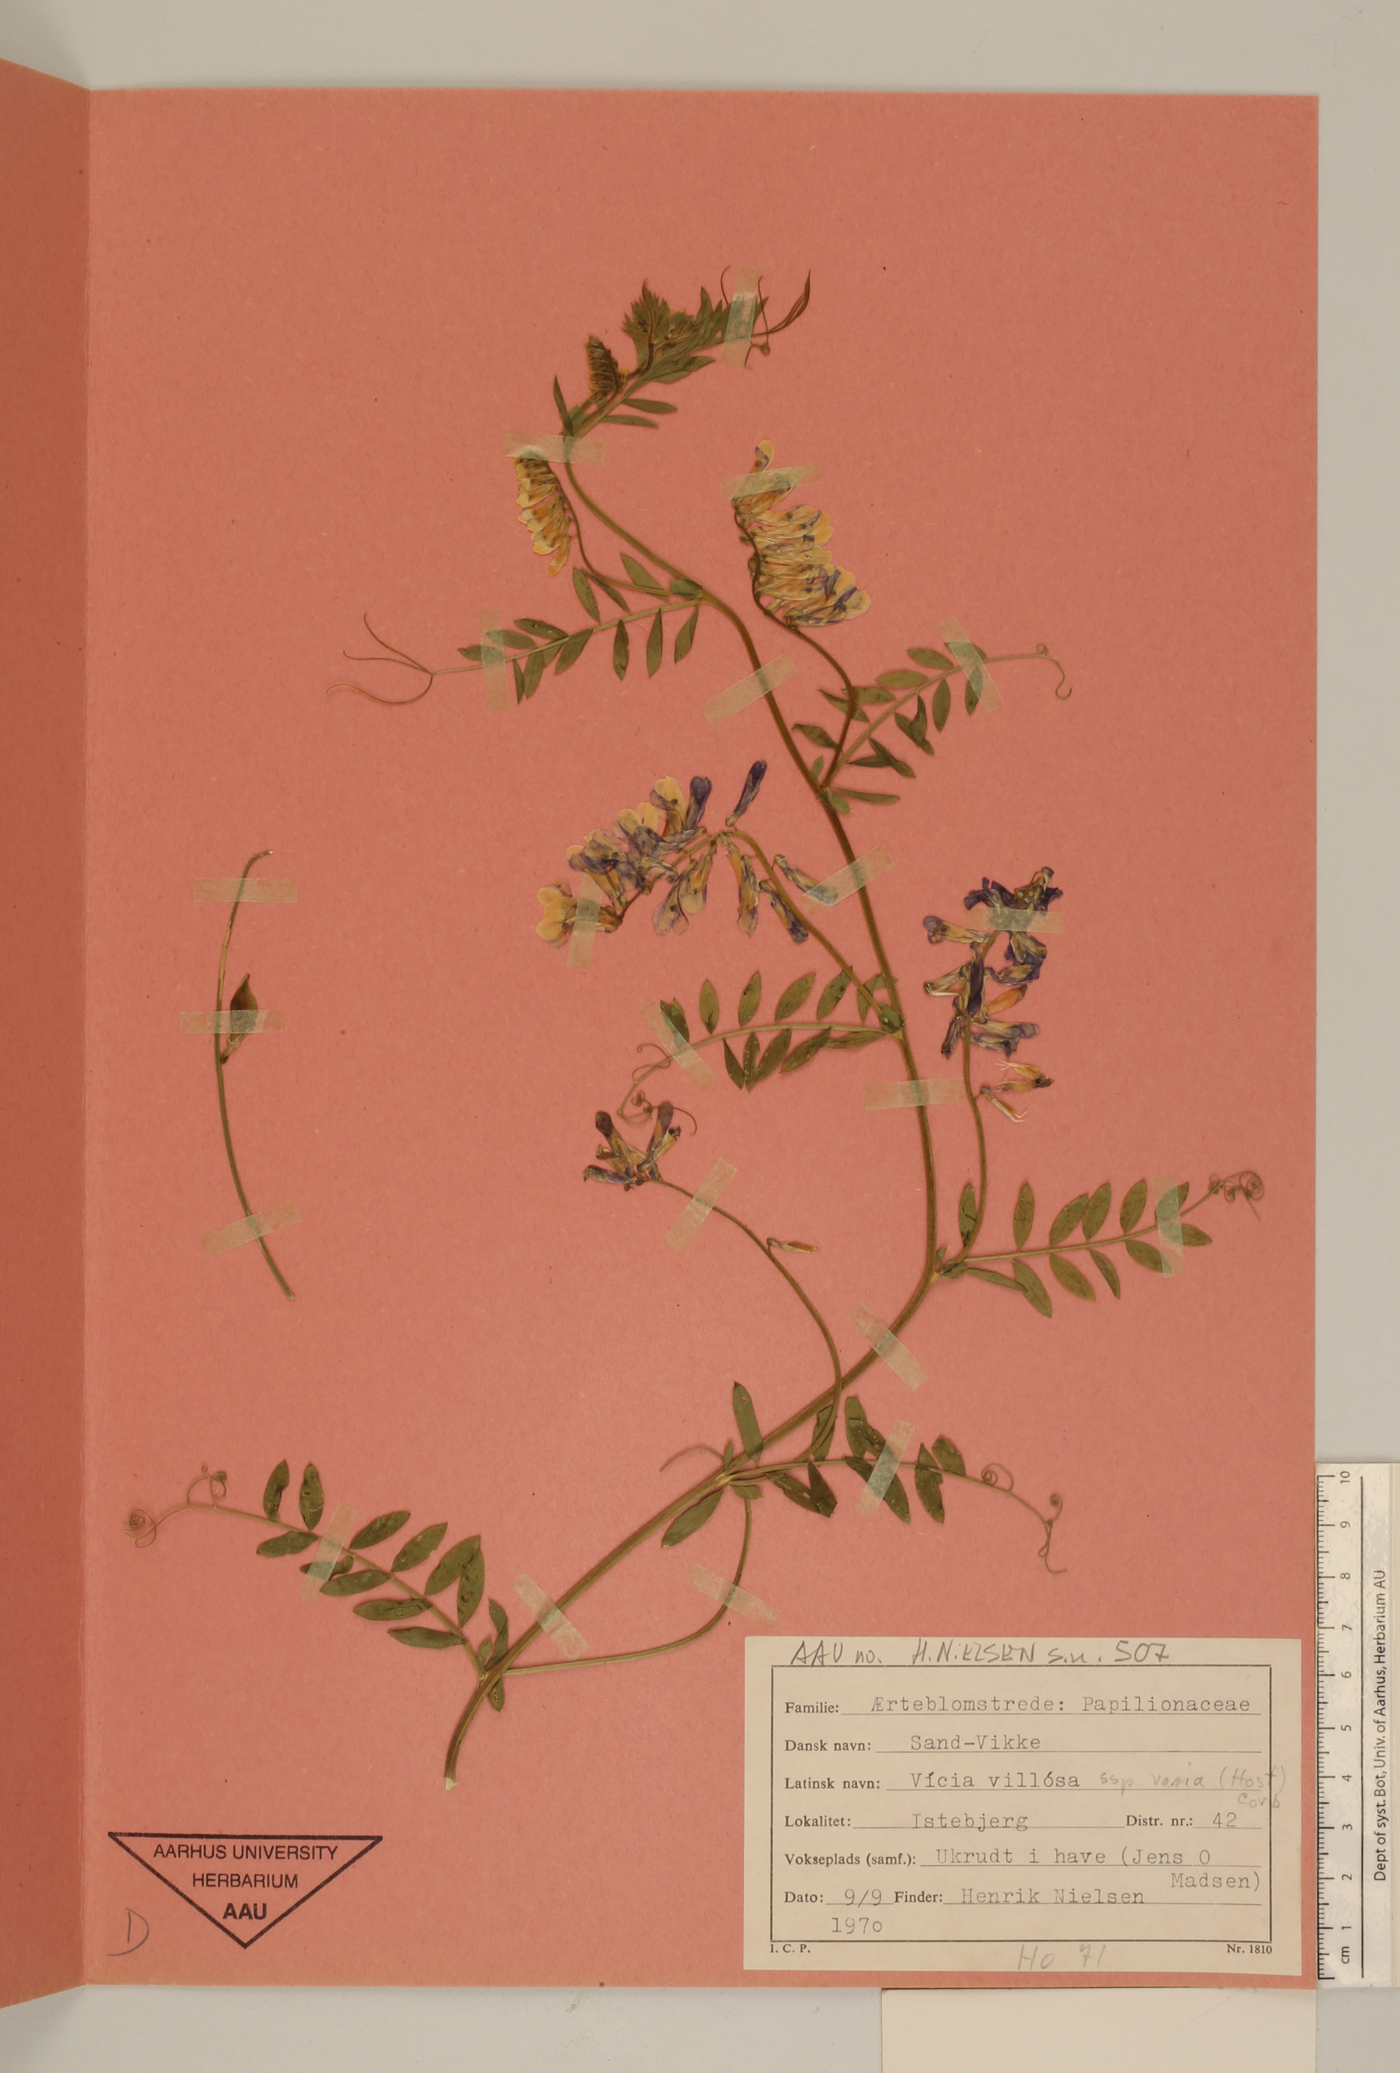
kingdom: Plantae
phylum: Tracheophyta
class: Magnoliopsida
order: Fabales
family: Fabaceae
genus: Vicia
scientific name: Vicia villosa
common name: Fodder vetch
